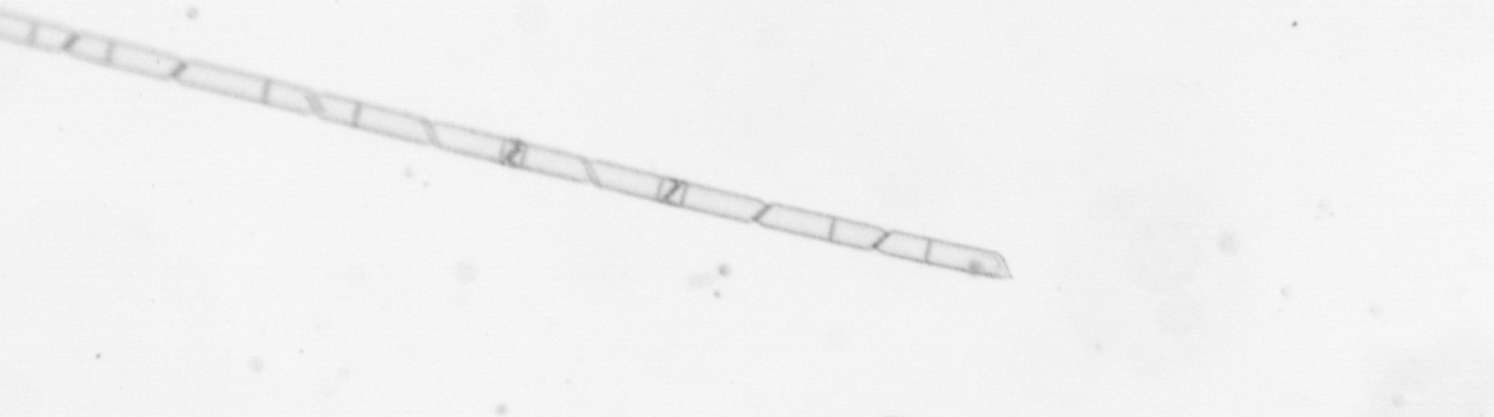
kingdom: Chromista
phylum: Ochrophyta
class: Bacillariophyceae
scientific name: Bacillariophyceae
